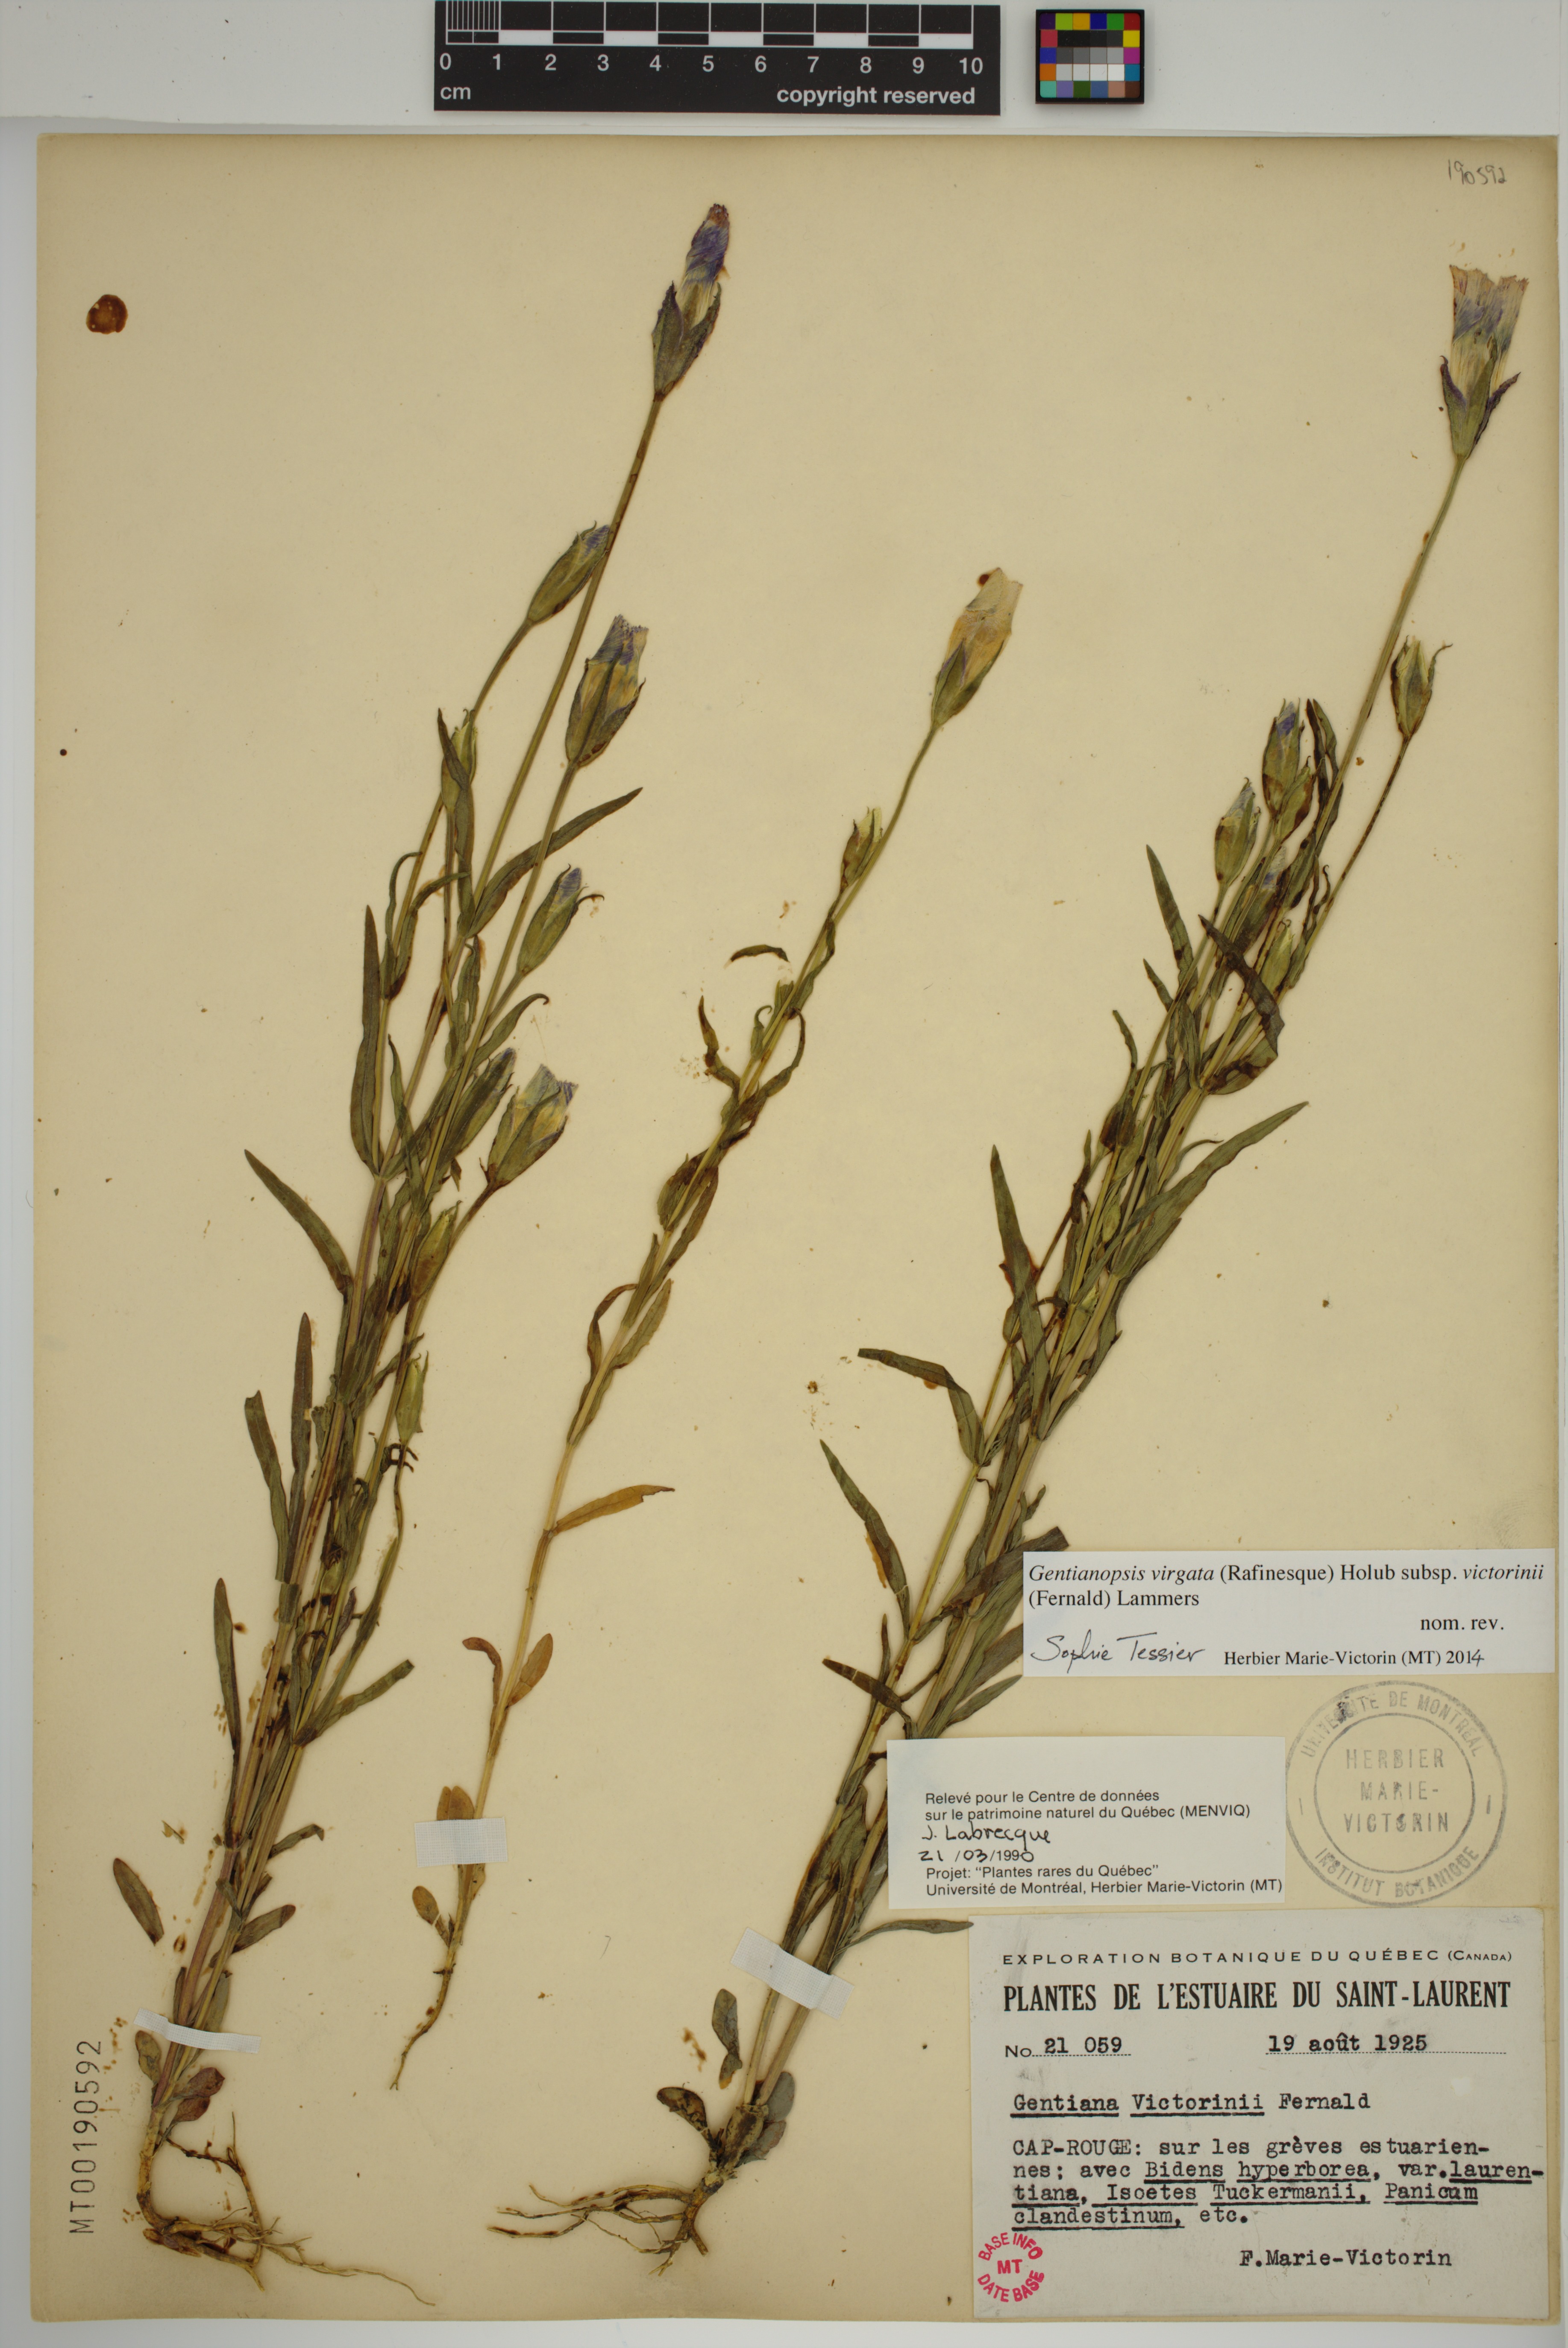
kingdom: Plantae
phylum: Tracheophyta
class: Magnoliopsida
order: Gentianales
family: Gentianaceae
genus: Gentianopsis
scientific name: Gentianopsis victorinii
